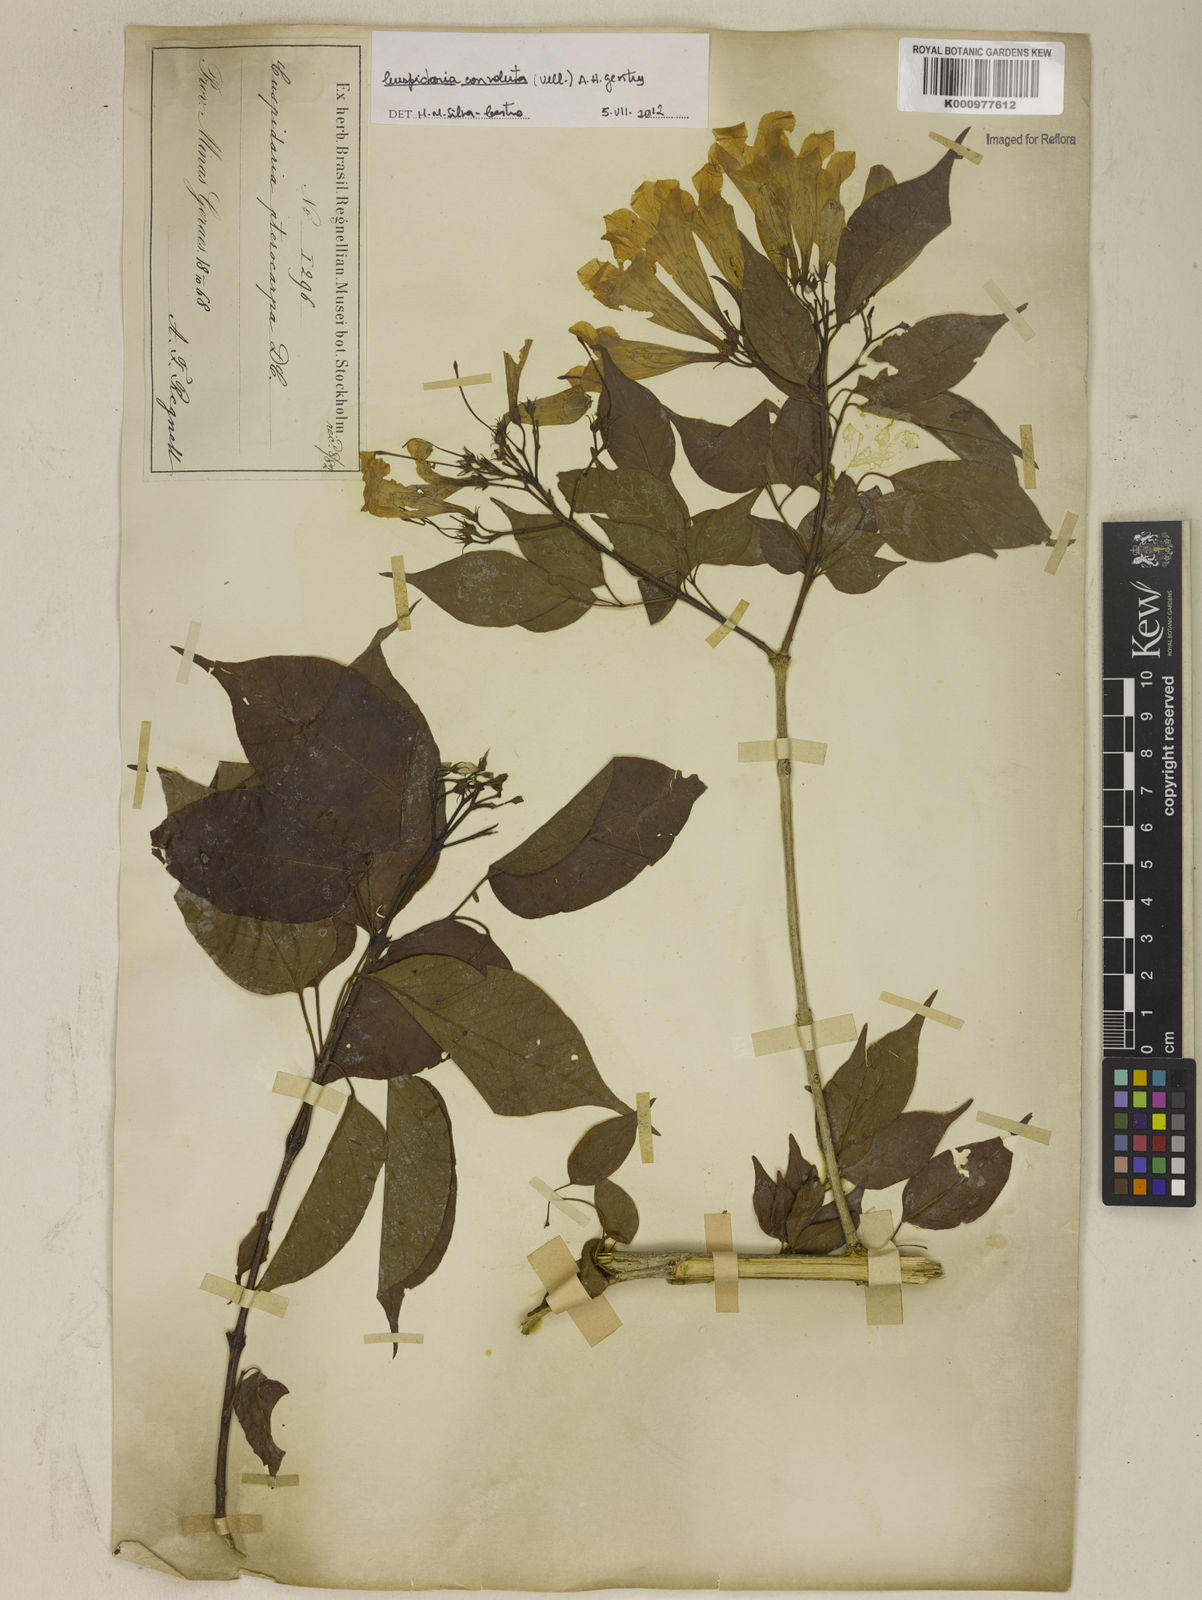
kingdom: Plantae
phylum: Tracheophyta
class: Magnoliopsida
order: Lamiales
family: Bignoniaceae
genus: Cuspidaria
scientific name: Cuspidaria convoluta
